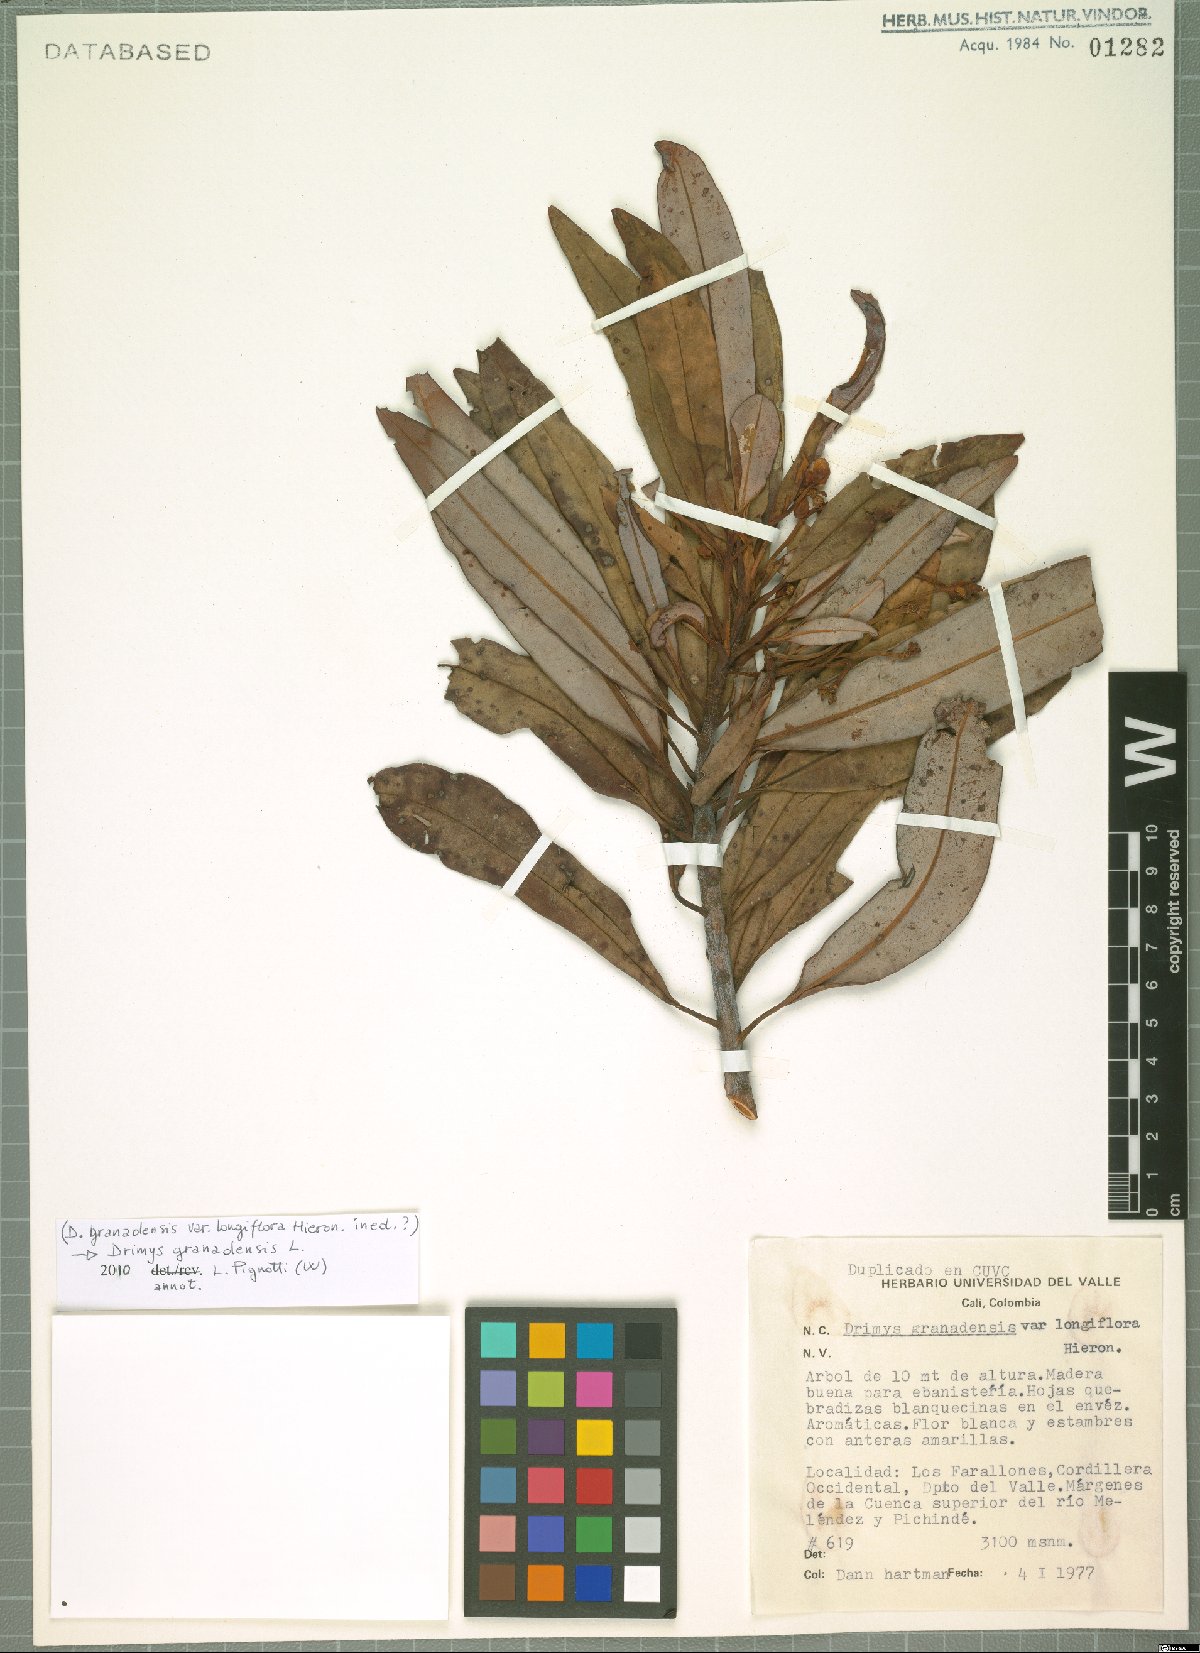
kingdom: Plantae
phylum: Tracheophyta
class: Magnoliopsida
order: Canellales
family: Winteraceae
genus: Drimys
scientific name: Drimys granadensis
